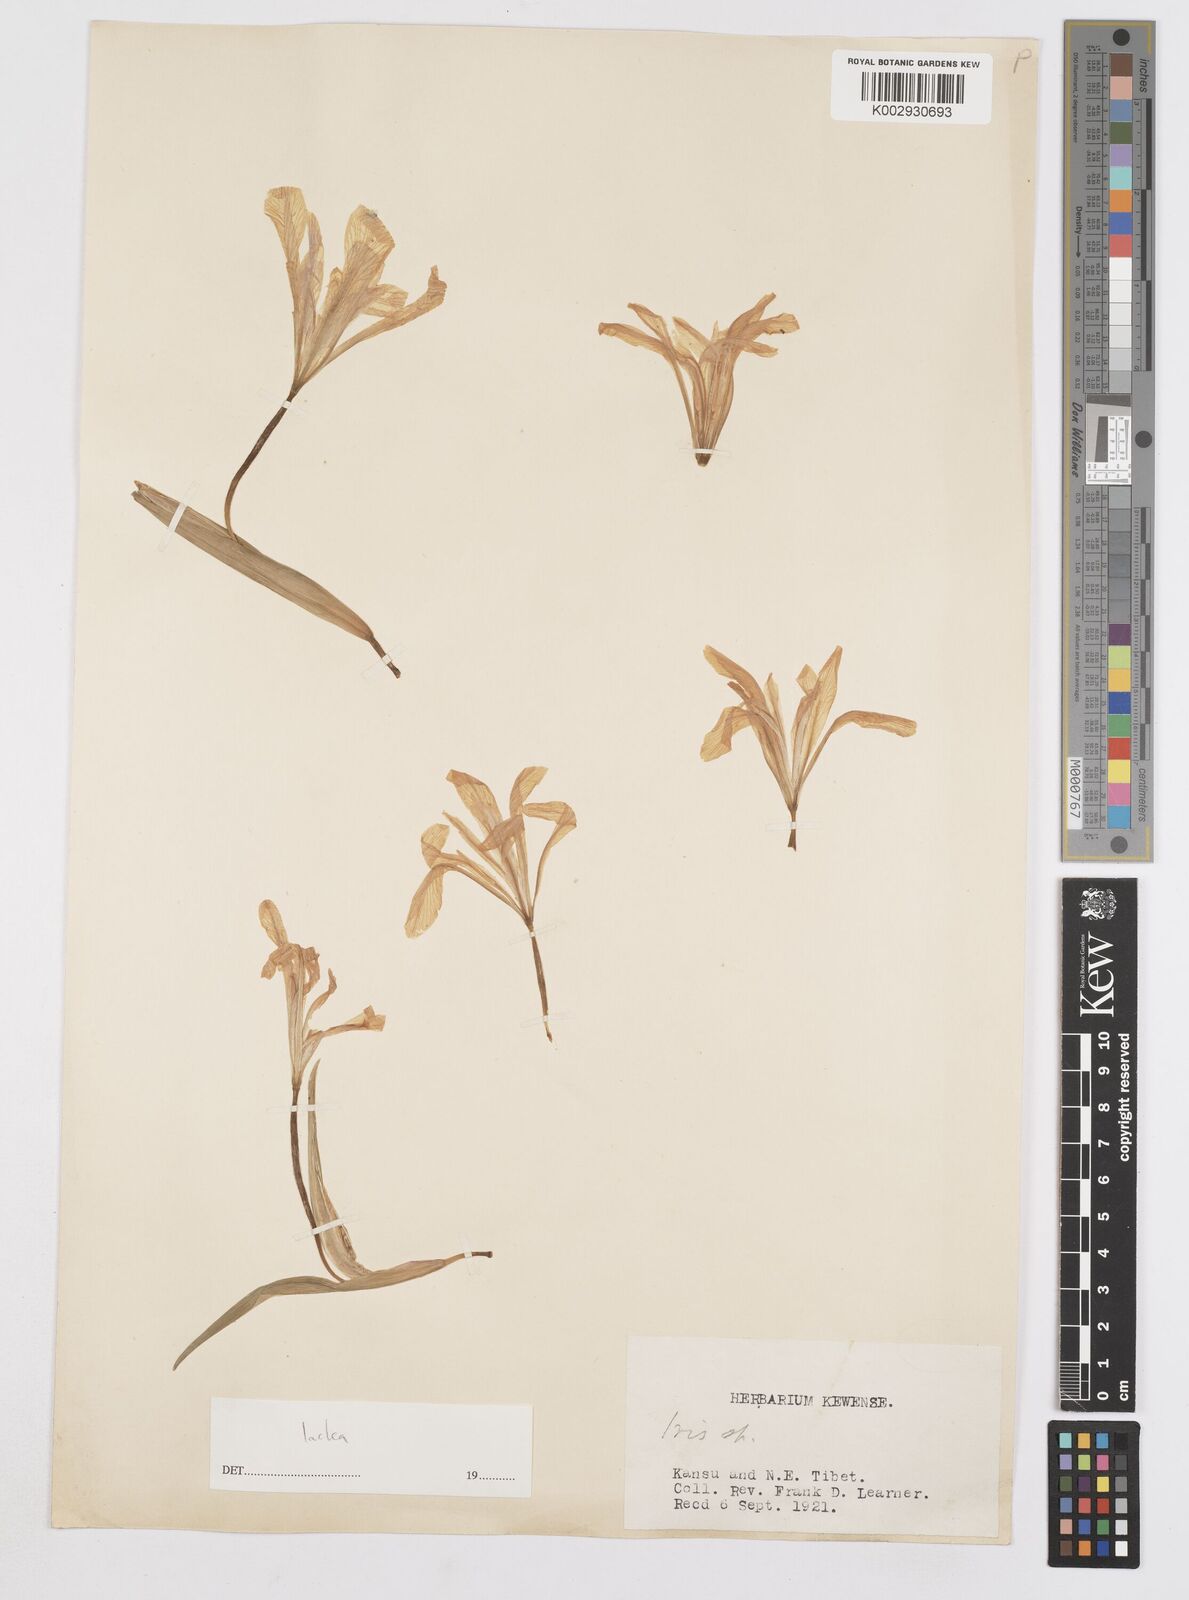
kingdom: Plantae
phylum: Tracheophyta
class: Liliopsida
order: Asparagales
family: Iridaceae
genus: Iris
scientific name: Iris ensata
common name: Beaked iris
